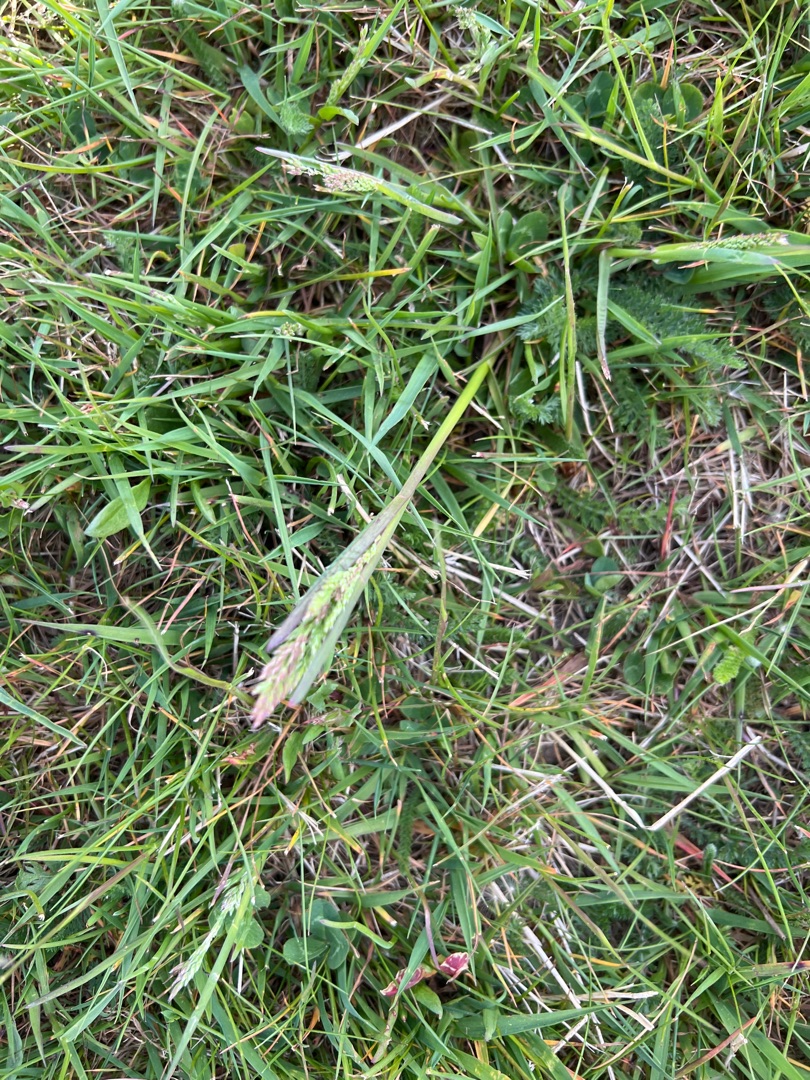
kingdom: Plantae
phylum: Tracheophyta
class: Liliopsida
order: Poales
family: Poaceae
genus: Holcus
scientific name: Holcus lanatus
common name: Fløjlsgræs
